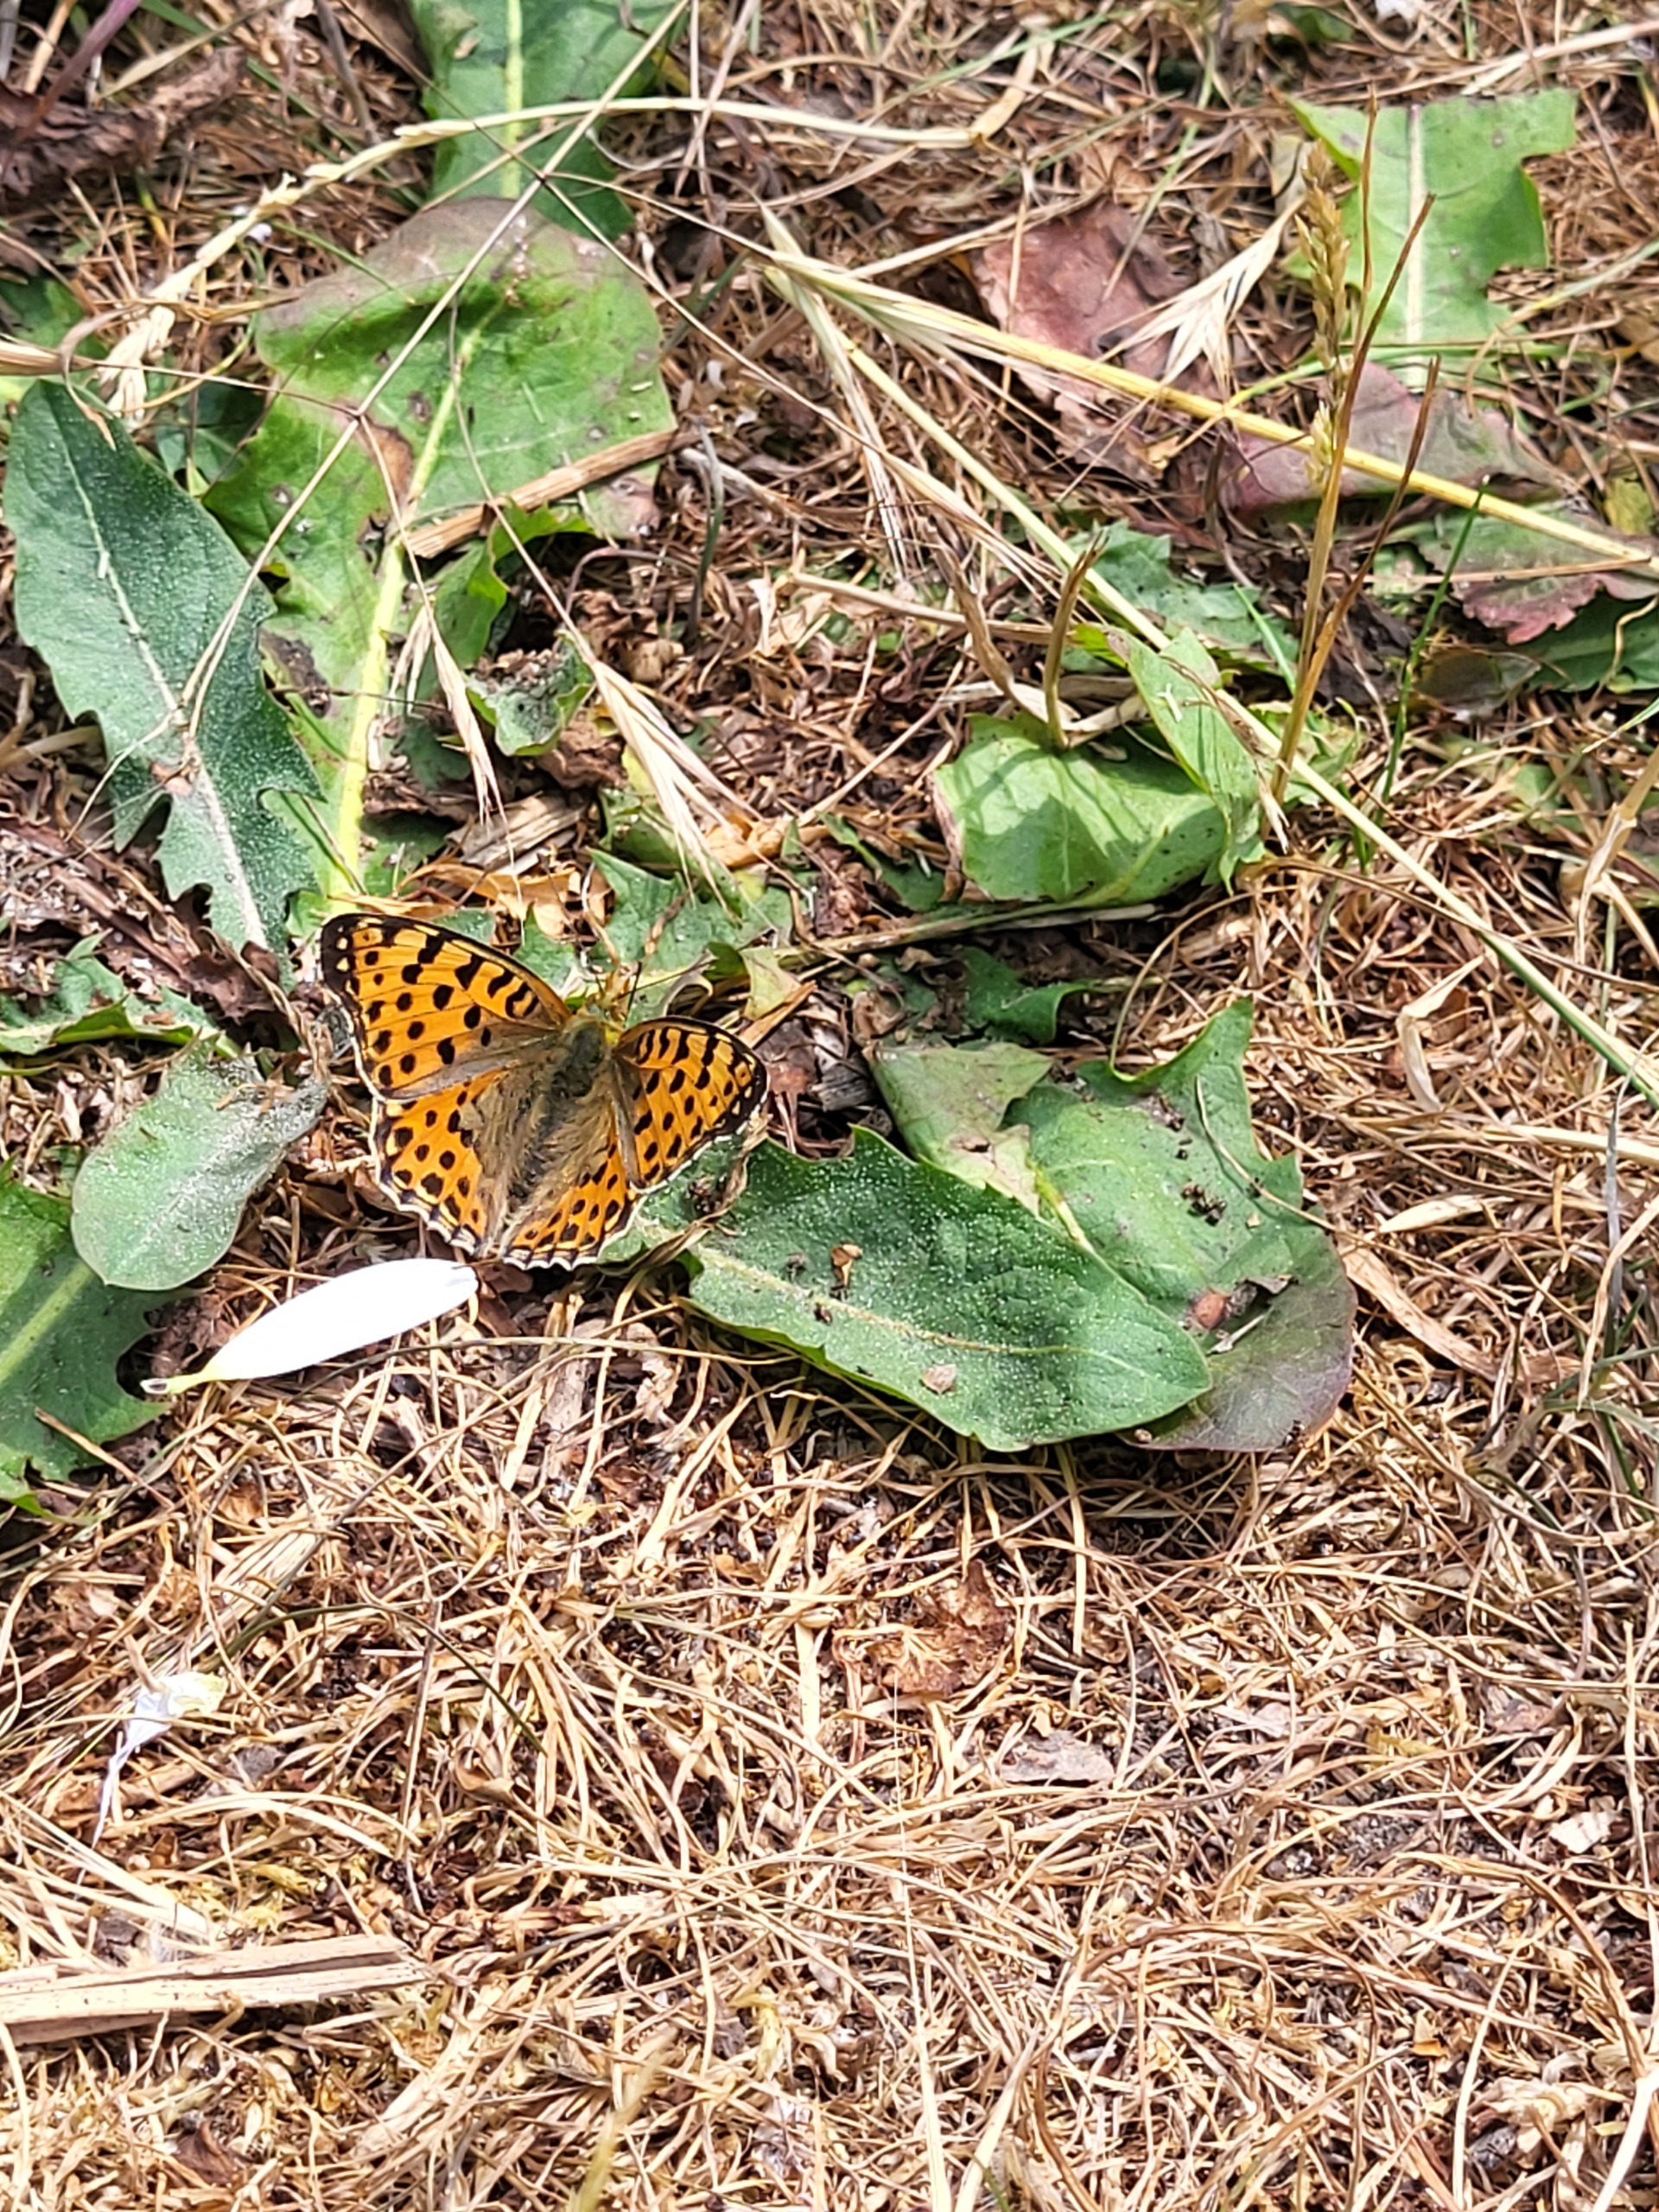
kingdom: Animalia
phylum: Arthropoda
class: Insecta
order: Lepidoptera
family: Nymphalidae
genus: Issoria
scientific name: Issoria lathonia
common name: Storplettet perlemorsommerfugl
